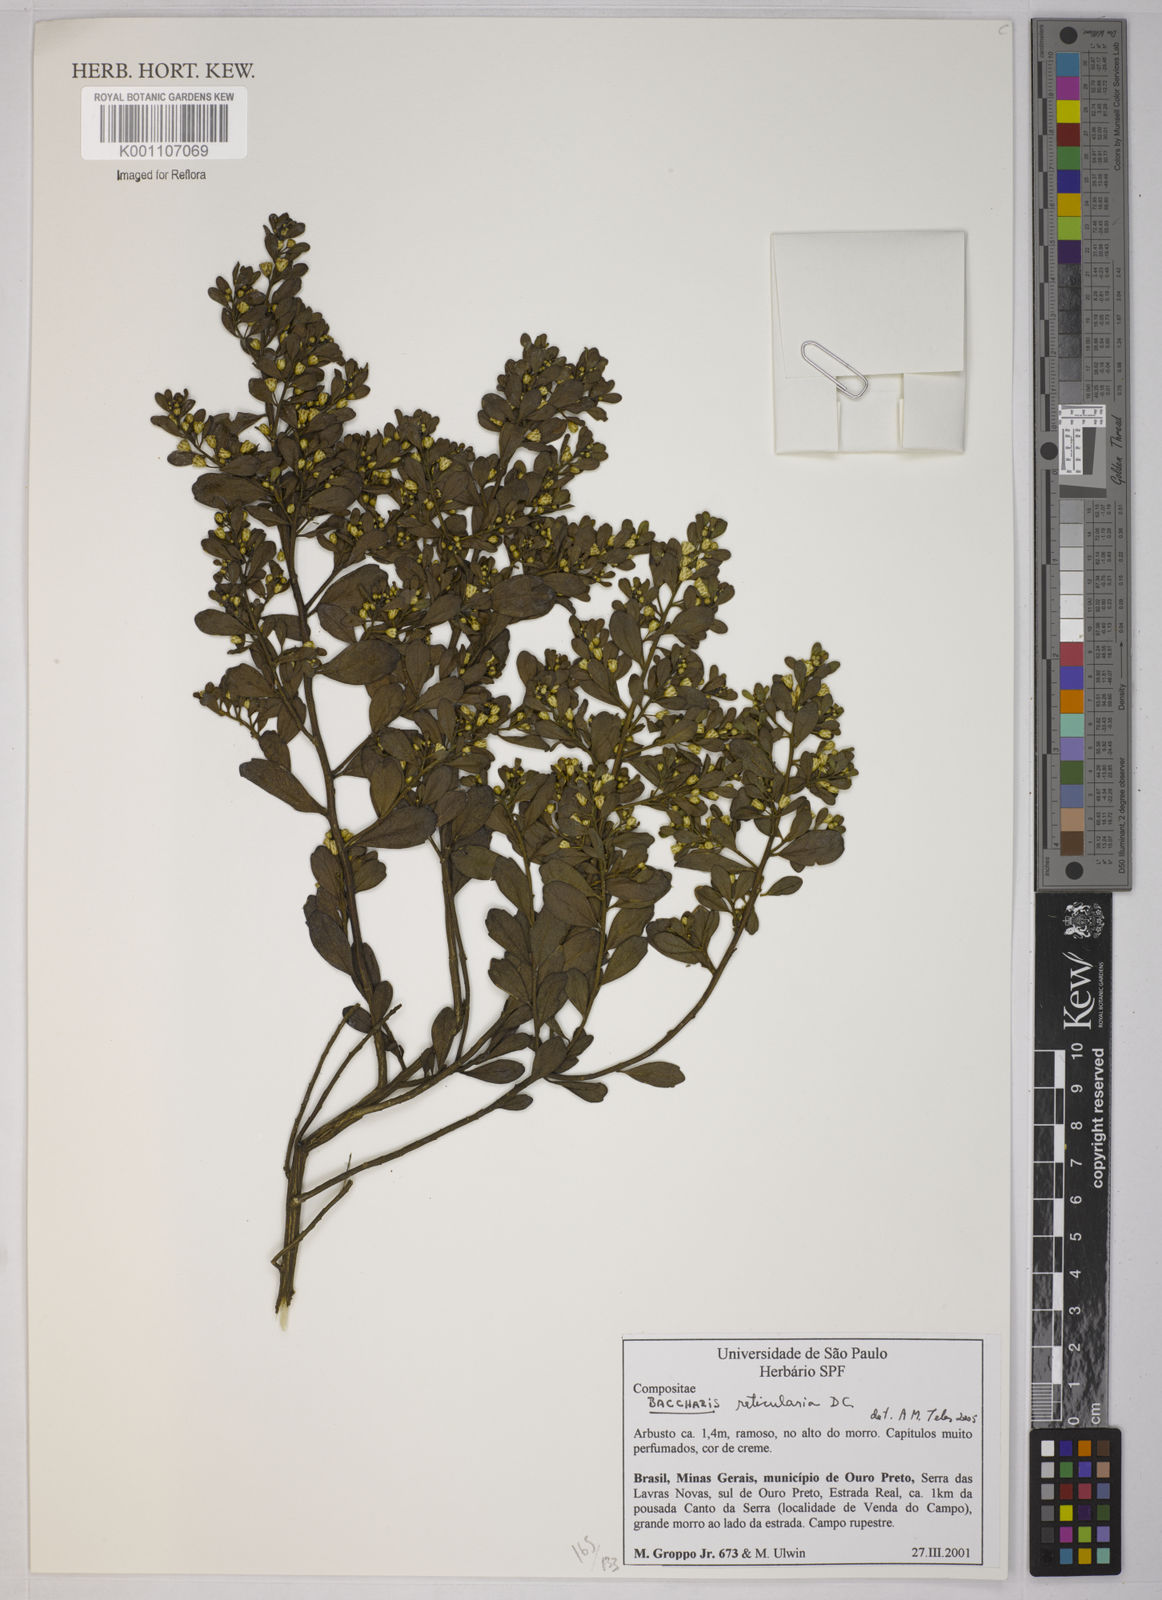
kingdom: Plantae
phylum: Tracheophyta
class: Magnoliopsida
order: Asterales
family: Asteraceae
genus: Baccharis
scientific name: Baccharis reticularia
